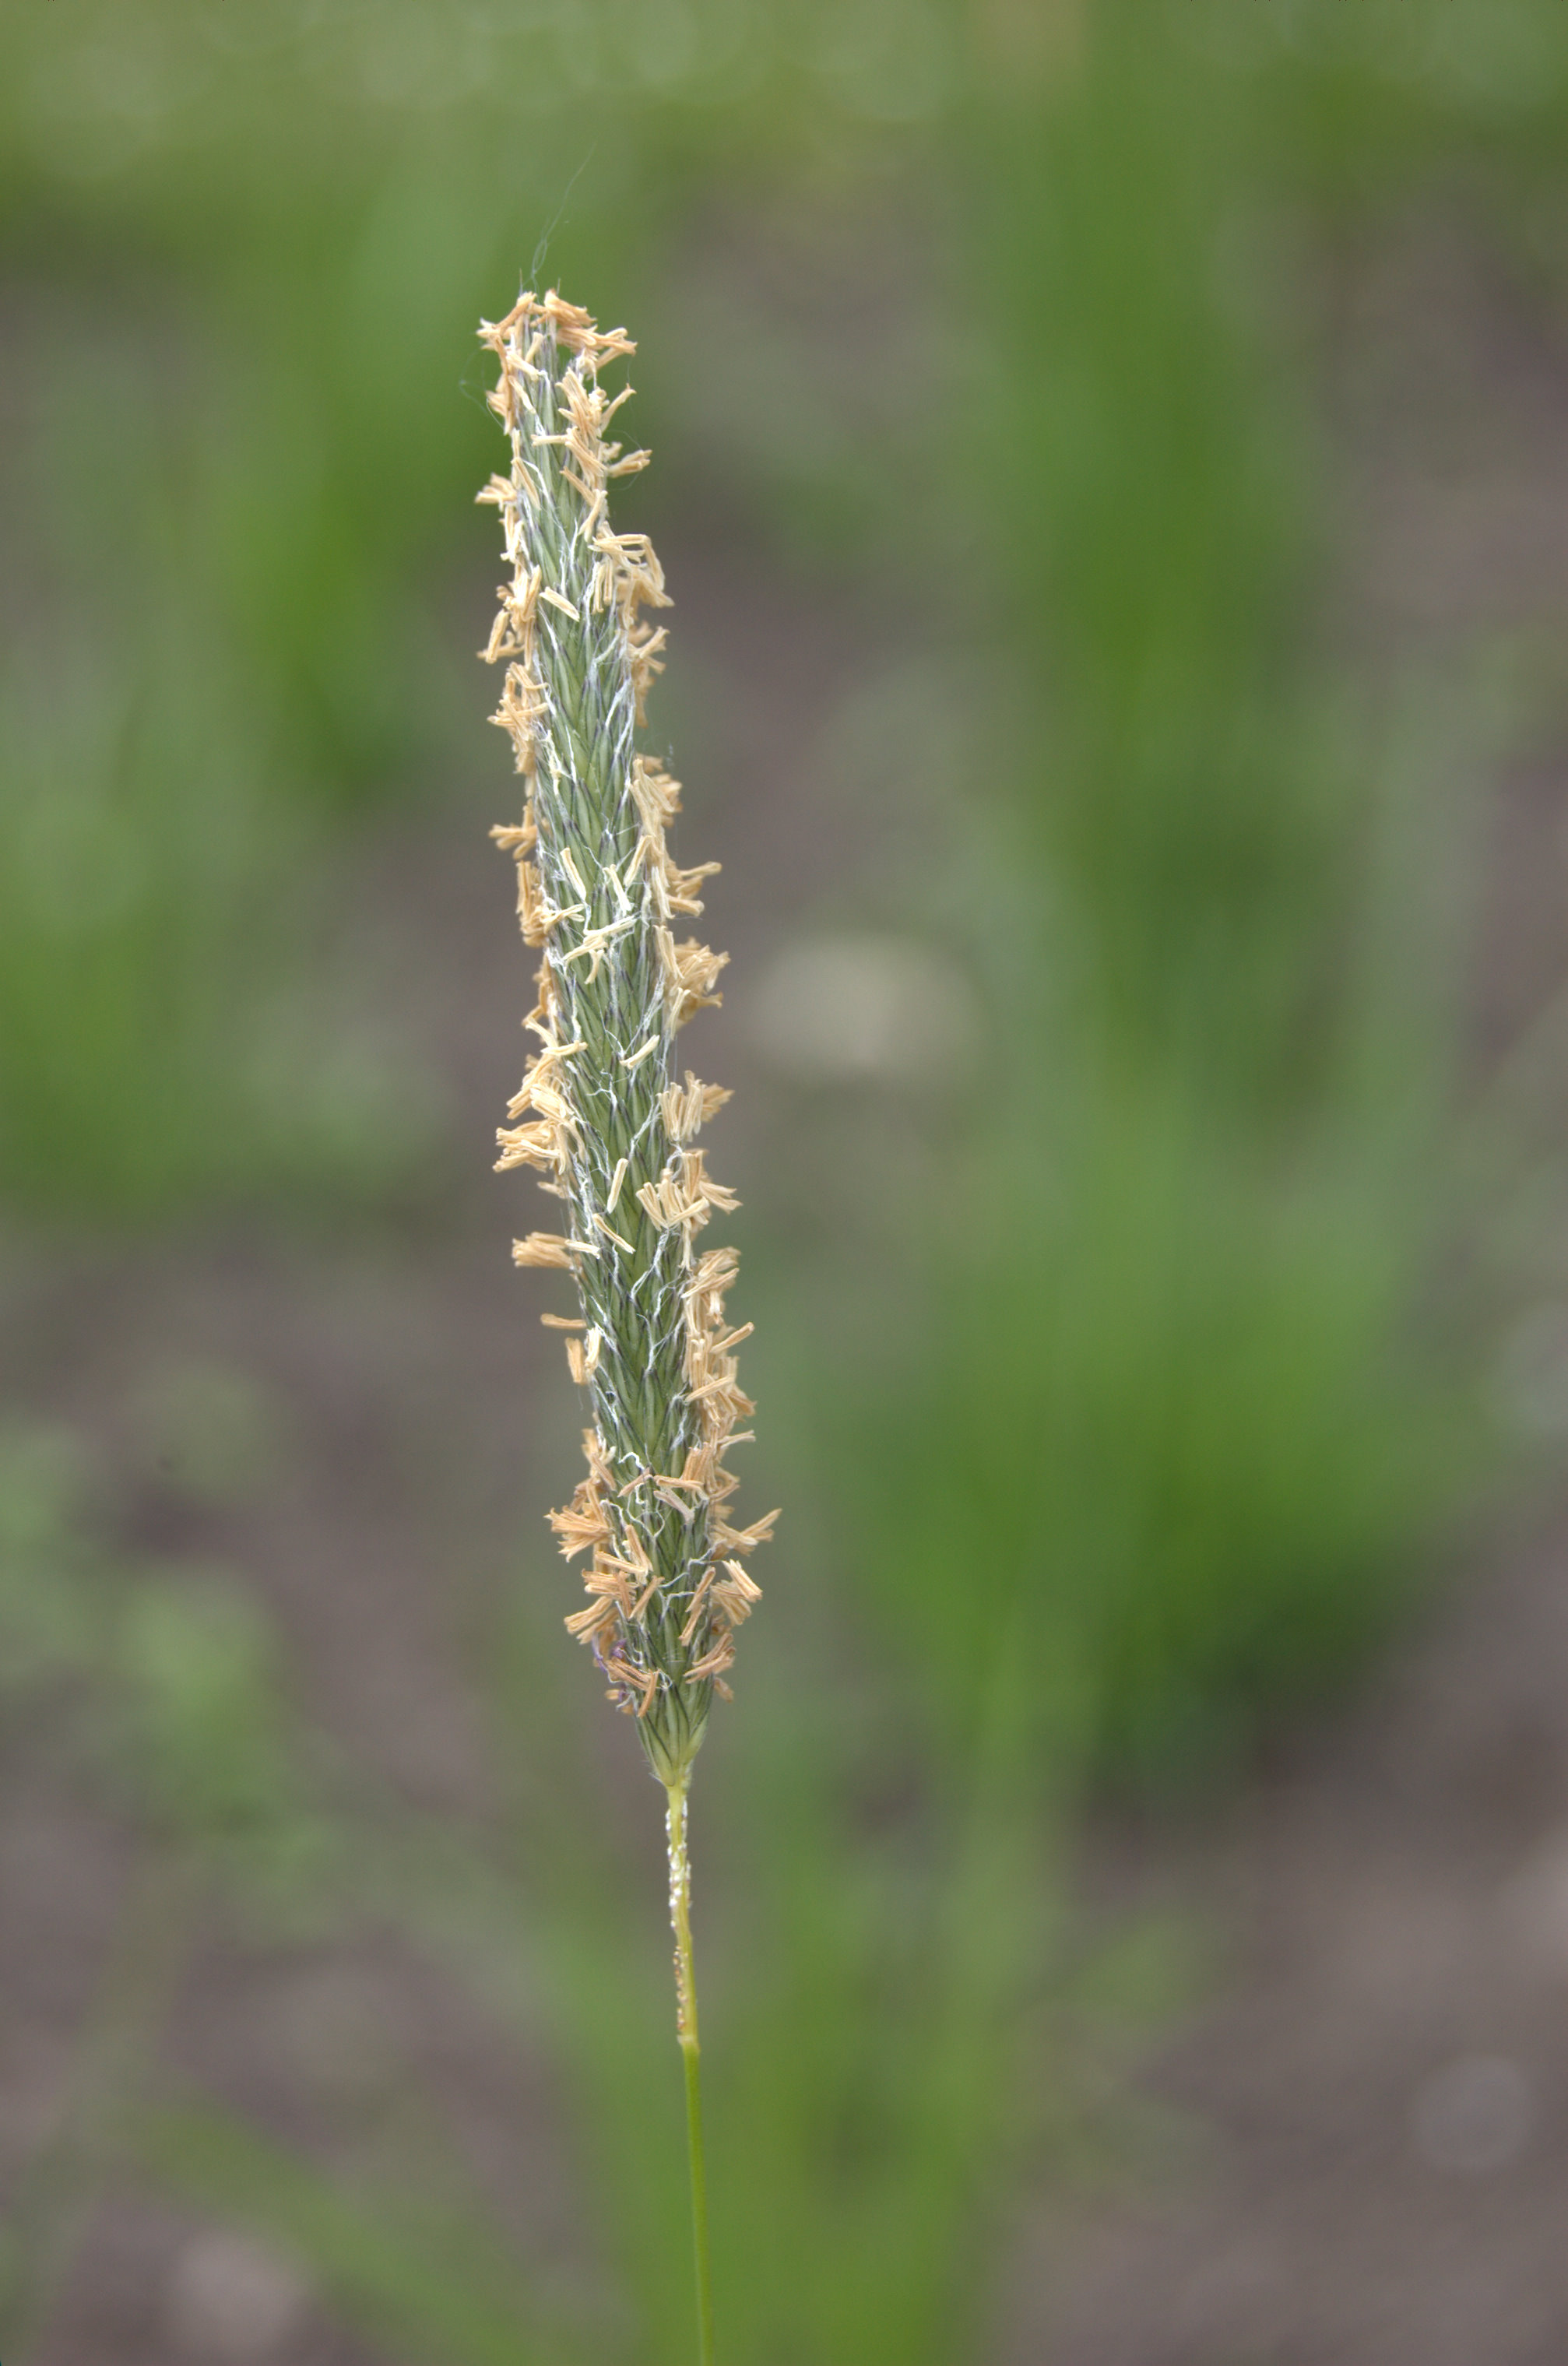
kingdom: Plantae
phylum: Tracheophyta
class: Liliopsida
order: Poales
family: Poaceae
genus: Alopecurus
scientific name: Alopecurus pratensis
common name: Meadow foxtail
